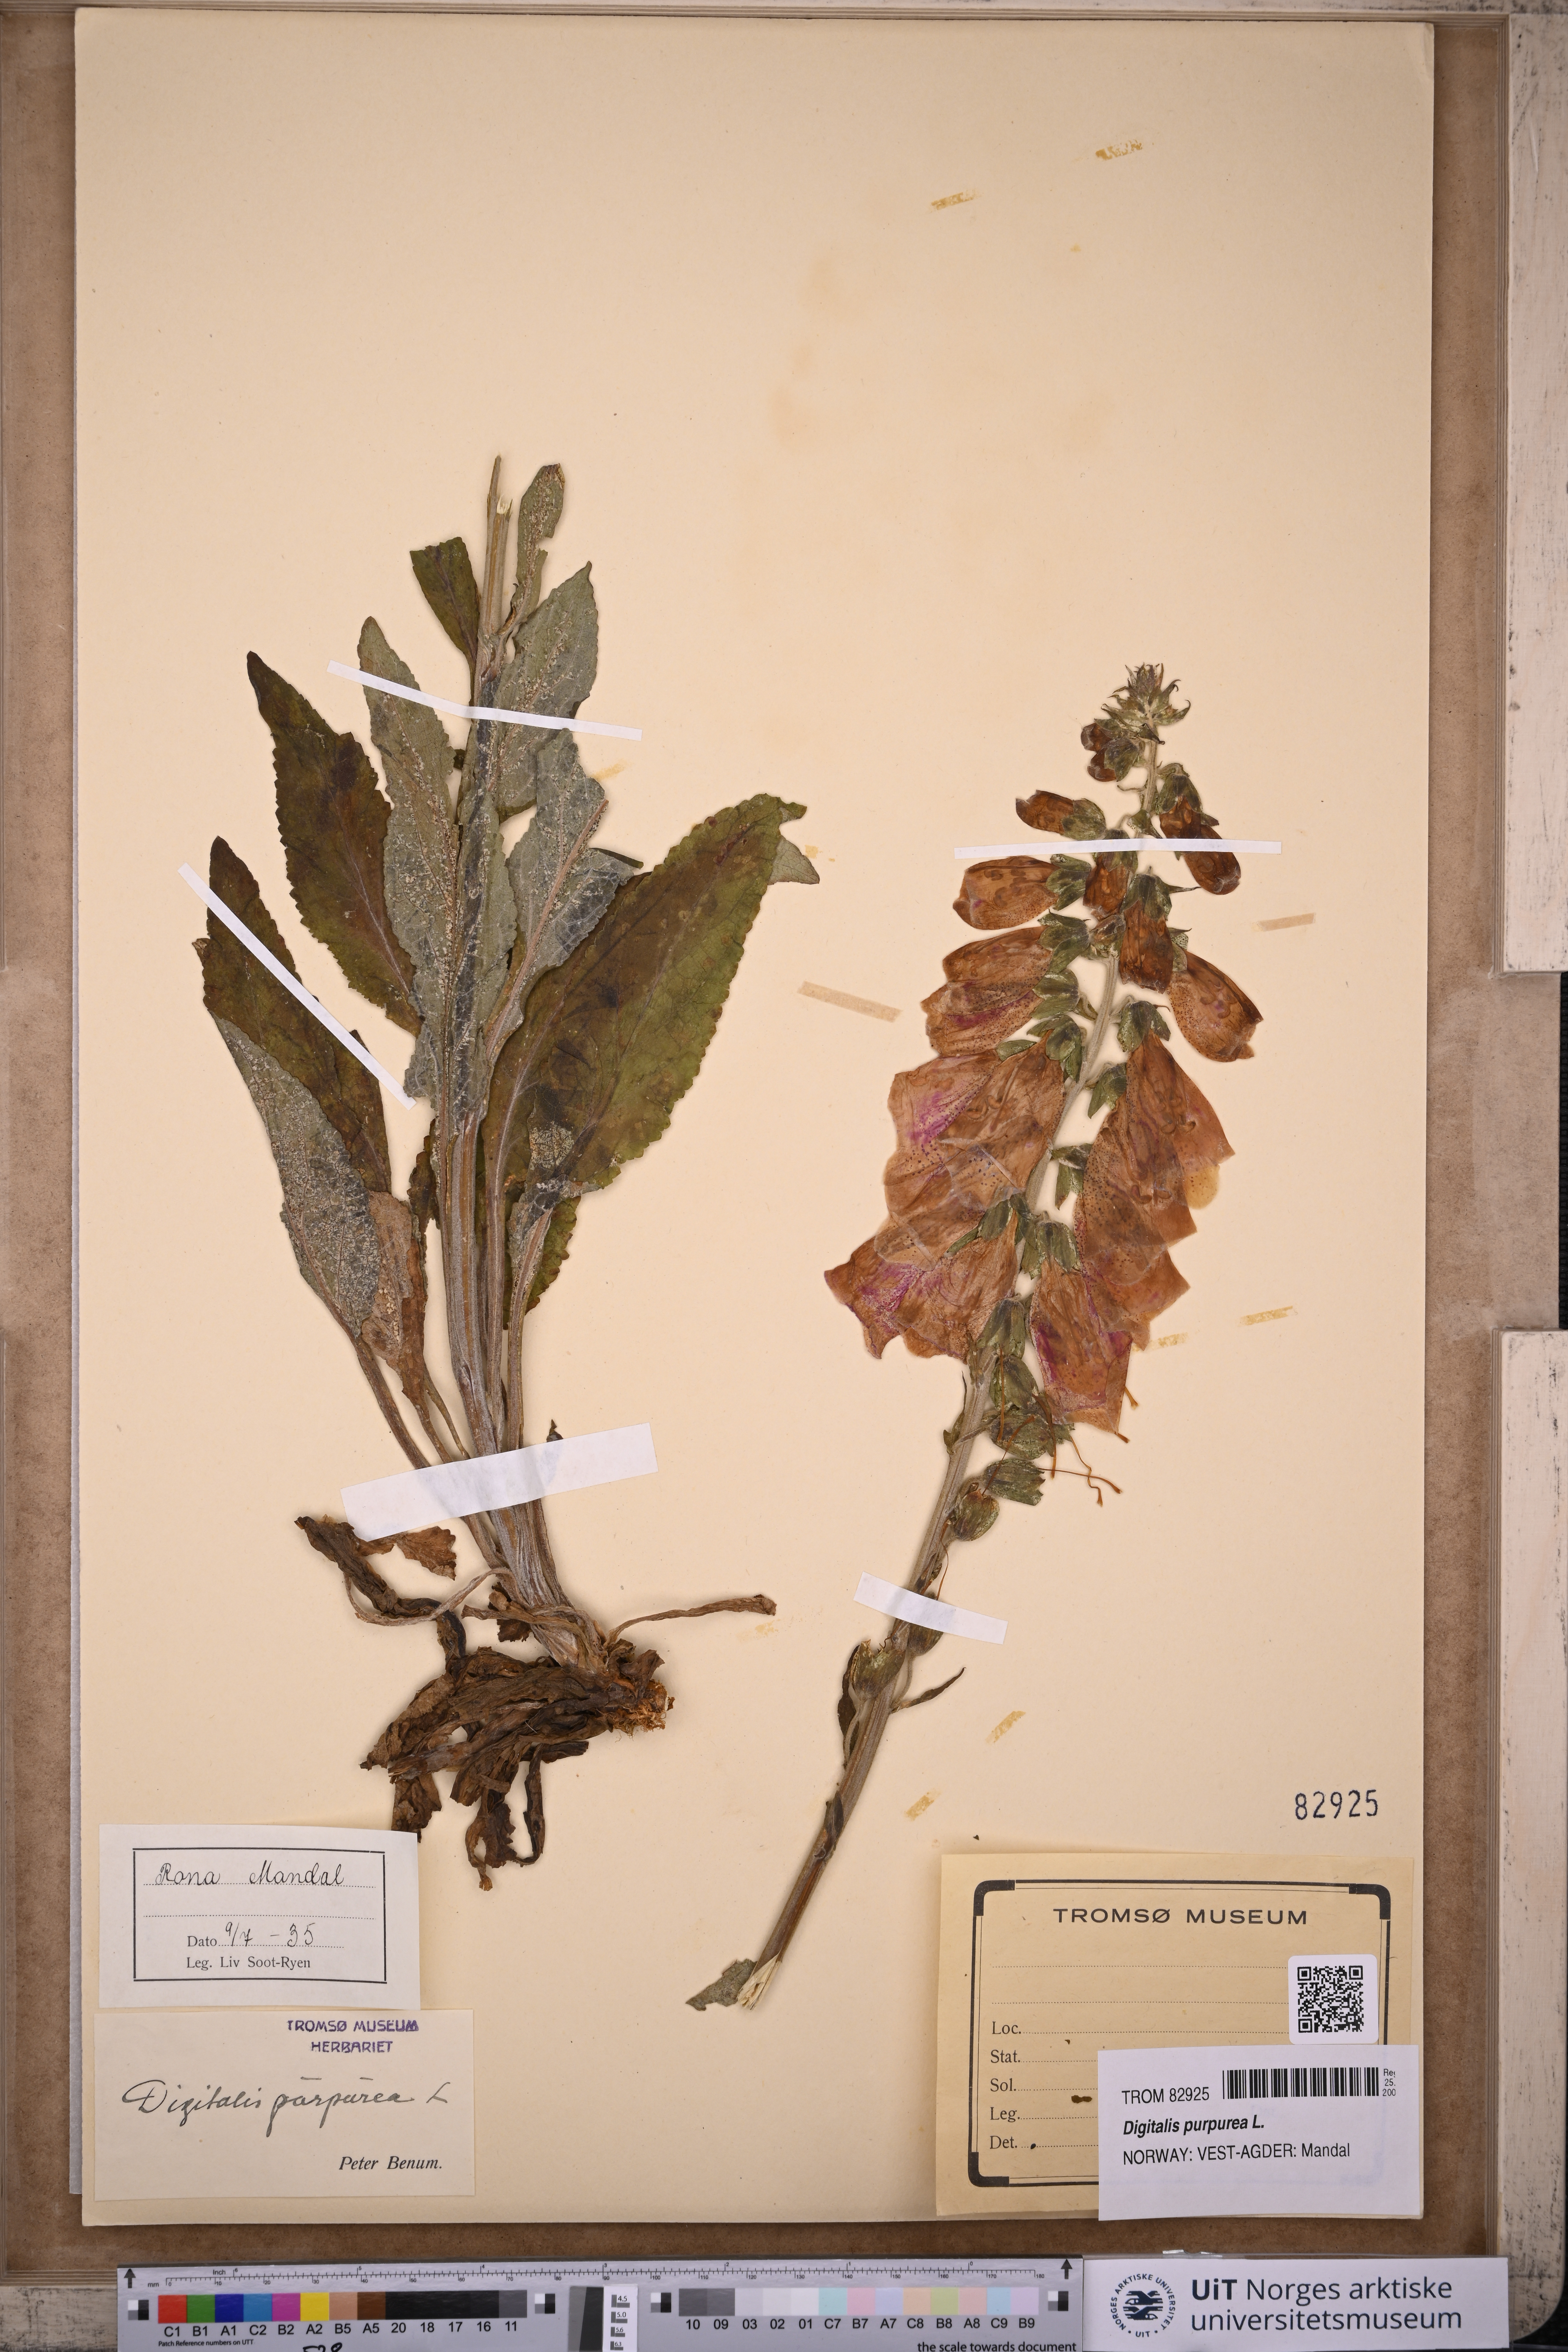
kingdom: Plantae
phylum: Tracheophyta
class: Magnoliopsida
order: Lamiales
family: Plantaginaceae
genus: Digitalis
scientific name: Digitalis purpurea
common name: Foxglove
